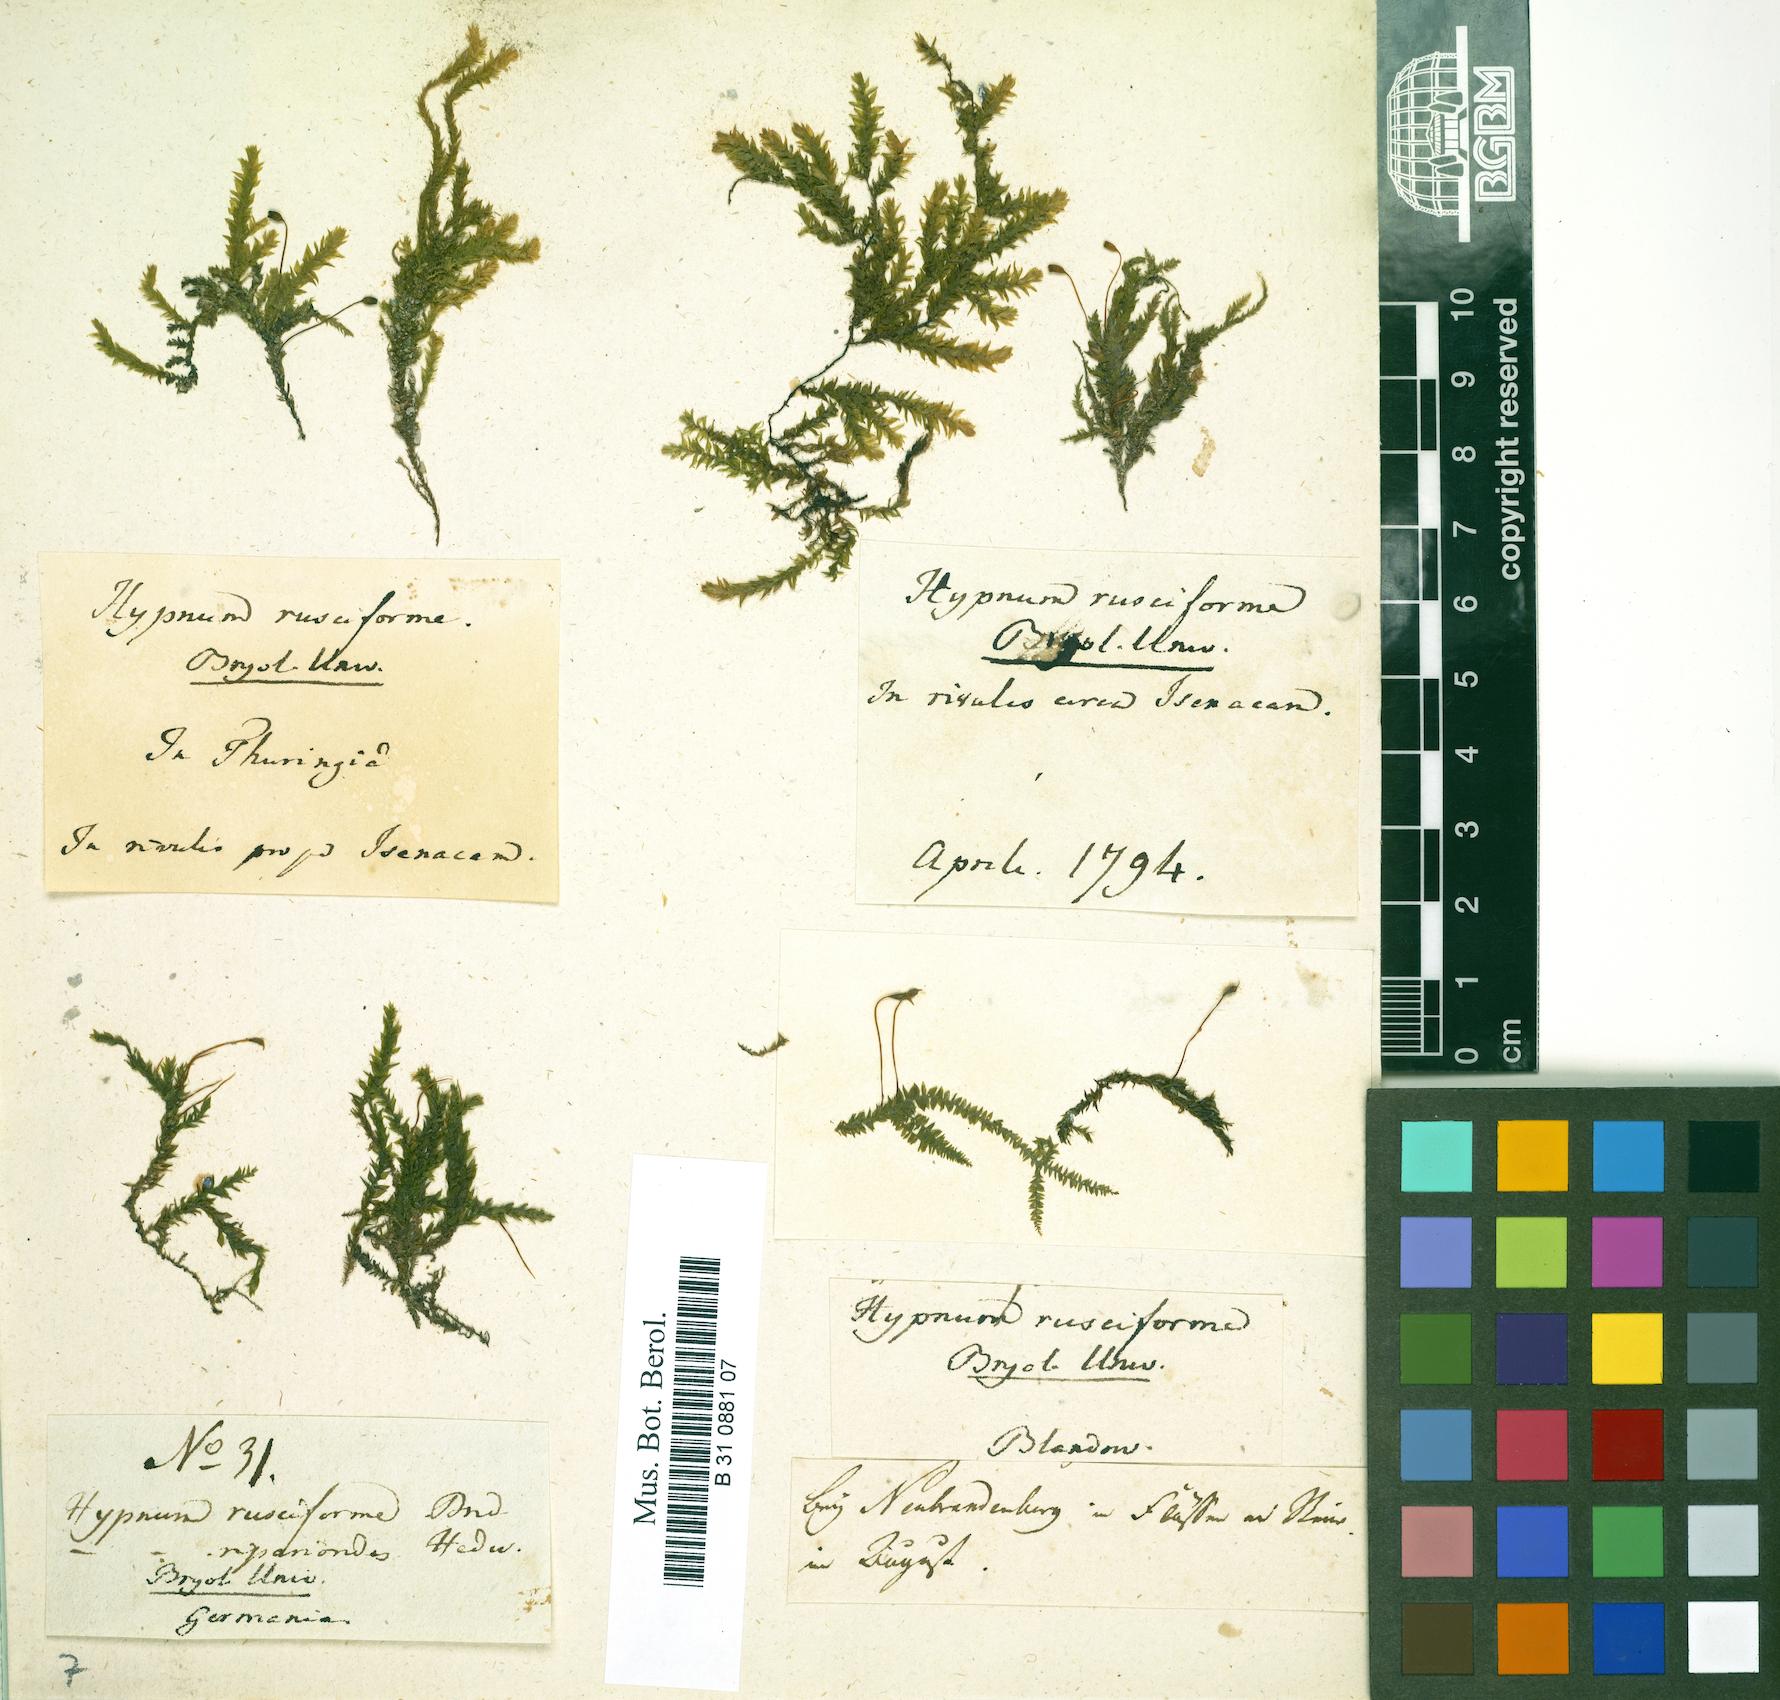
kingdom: Plantae
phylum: Bryophyta
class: Bryopsida
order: Hypnales
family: Brachytheciaceae
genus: Rhynchostegium
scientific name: Rhynchostegium riparioides
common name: Platyhypnidium moss
